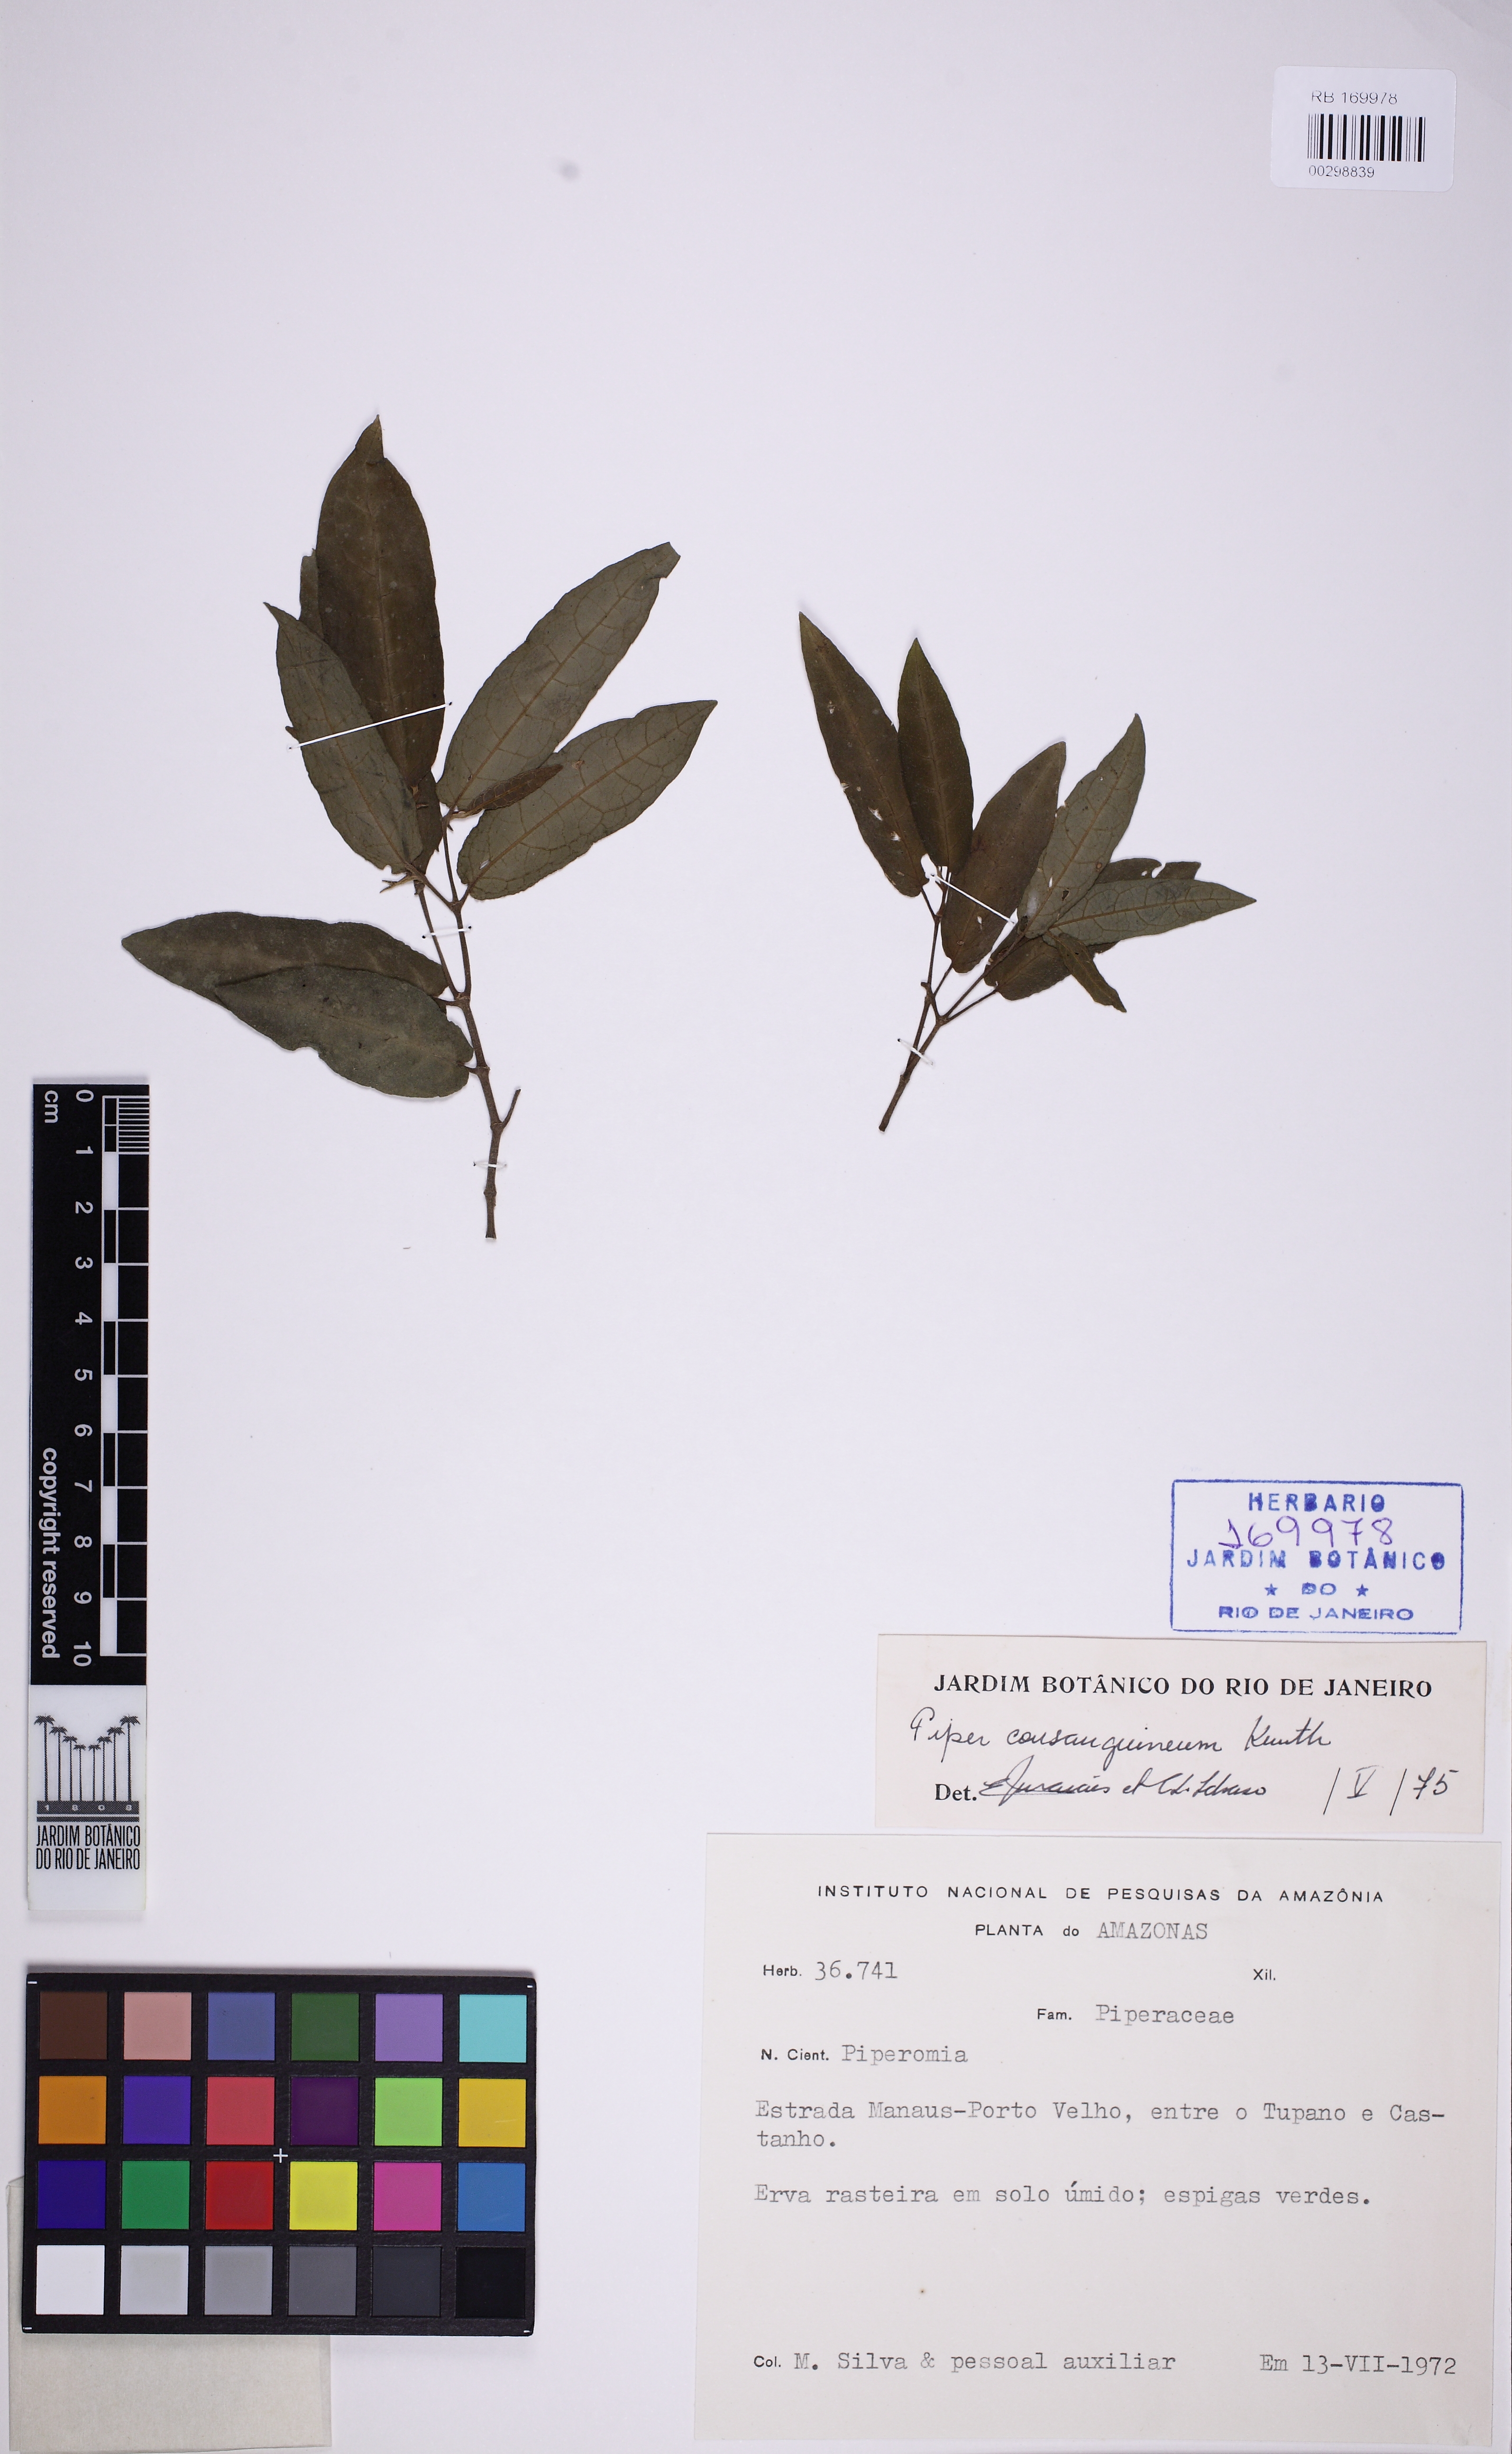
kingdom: Plantae
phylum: Tracheophyta
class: Magnoliopsida
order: Piperales
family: Piperaceae
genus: Piper
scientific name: Piper consanguineum
